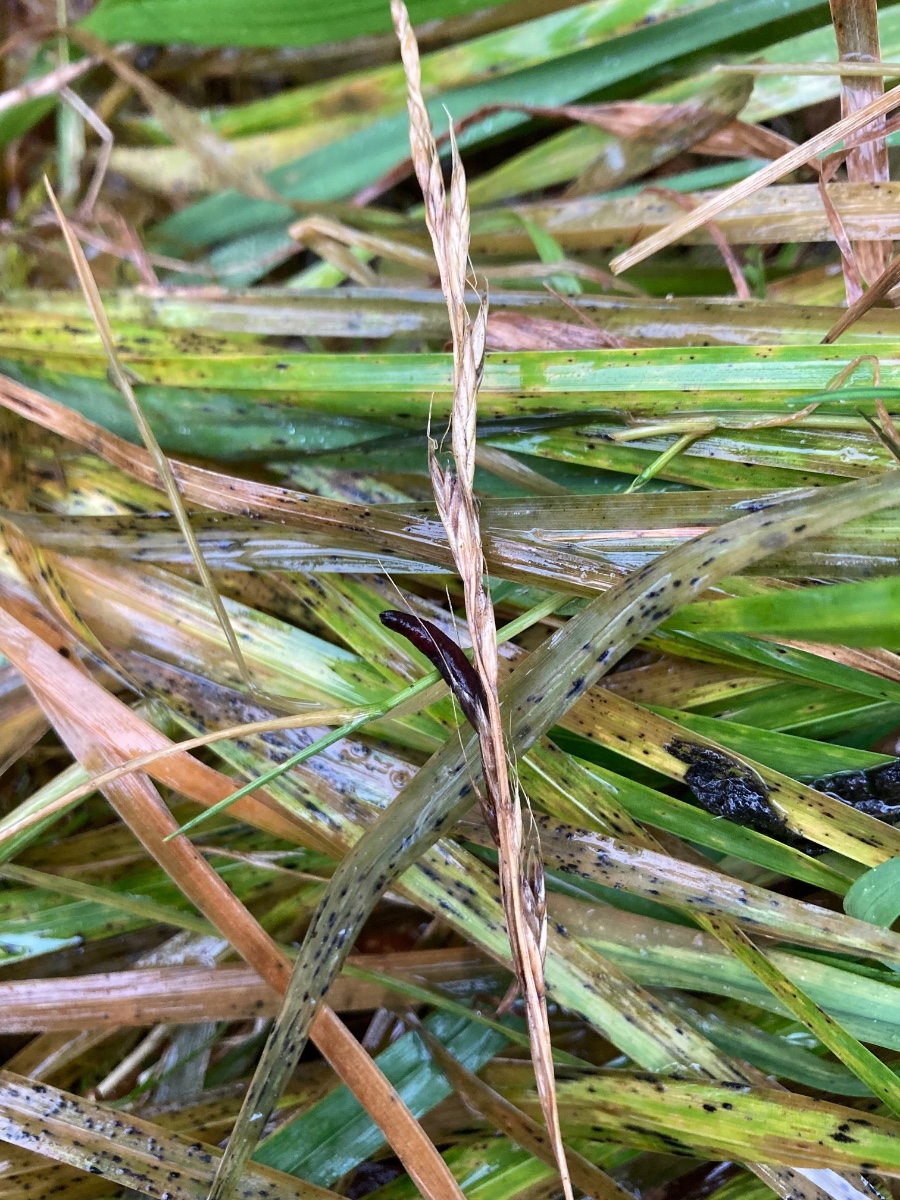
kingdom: Fungi
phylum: Ascomycota
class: Sordariomycetes
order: Hypocreales
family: Clavicipitaceae
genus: Claviceps
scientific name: Claviceps purpurea
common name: almindelig meldrøjer
